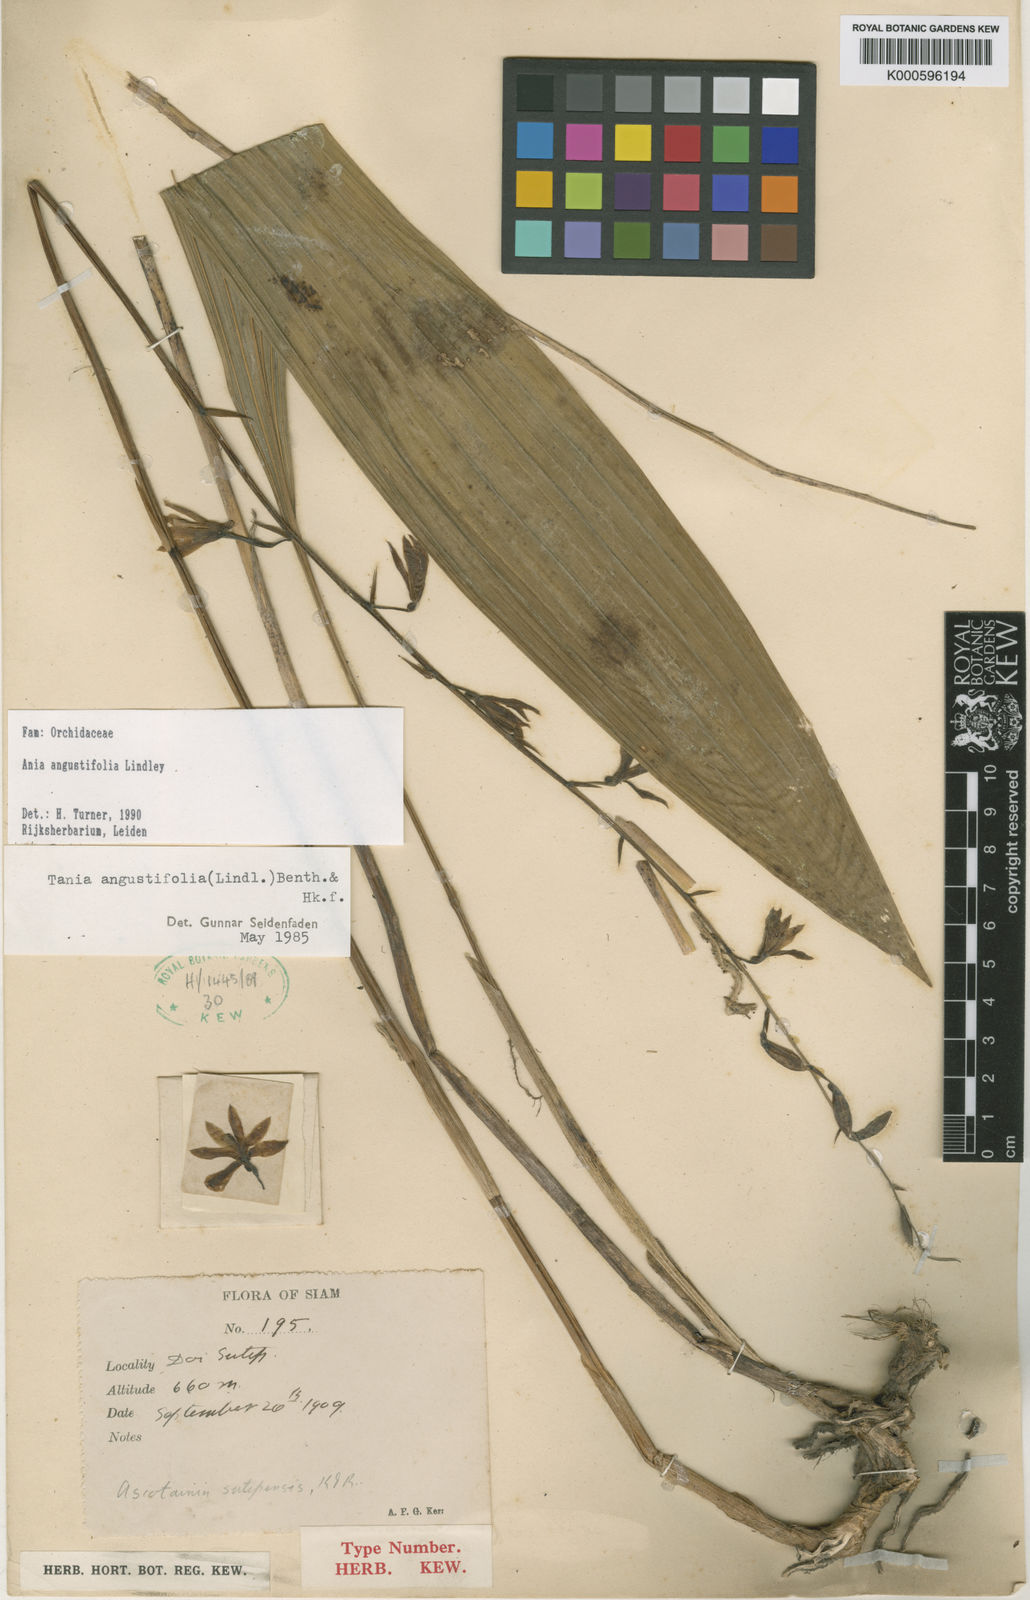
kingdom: Plantae
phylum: Tracheophyta
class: Liliopsida
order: Asparagales
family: Orchidaceae
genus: Ania
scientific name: Ania angustifolia
